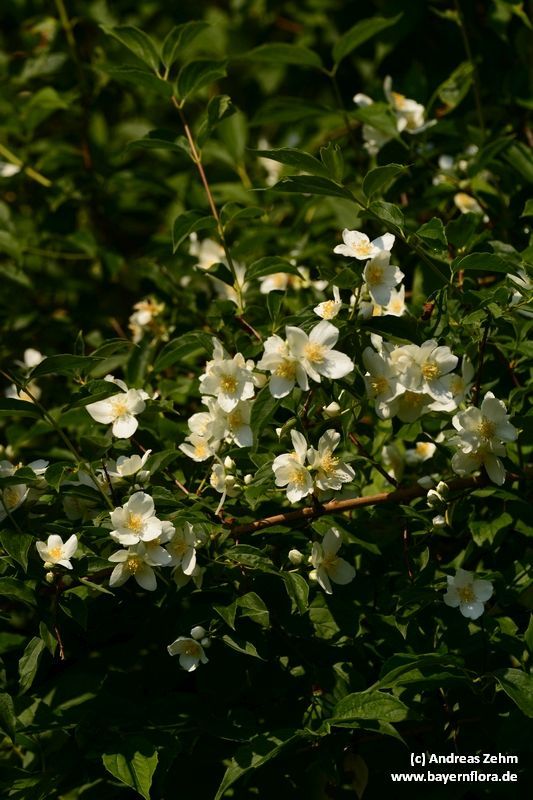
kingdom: Plantae
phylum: Tracheophyta
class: Magnoliopsida
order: Cornales
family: Hydrangeaceae
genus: Philadelphus
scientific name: Philadelphus coronarius
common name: Mock orange
